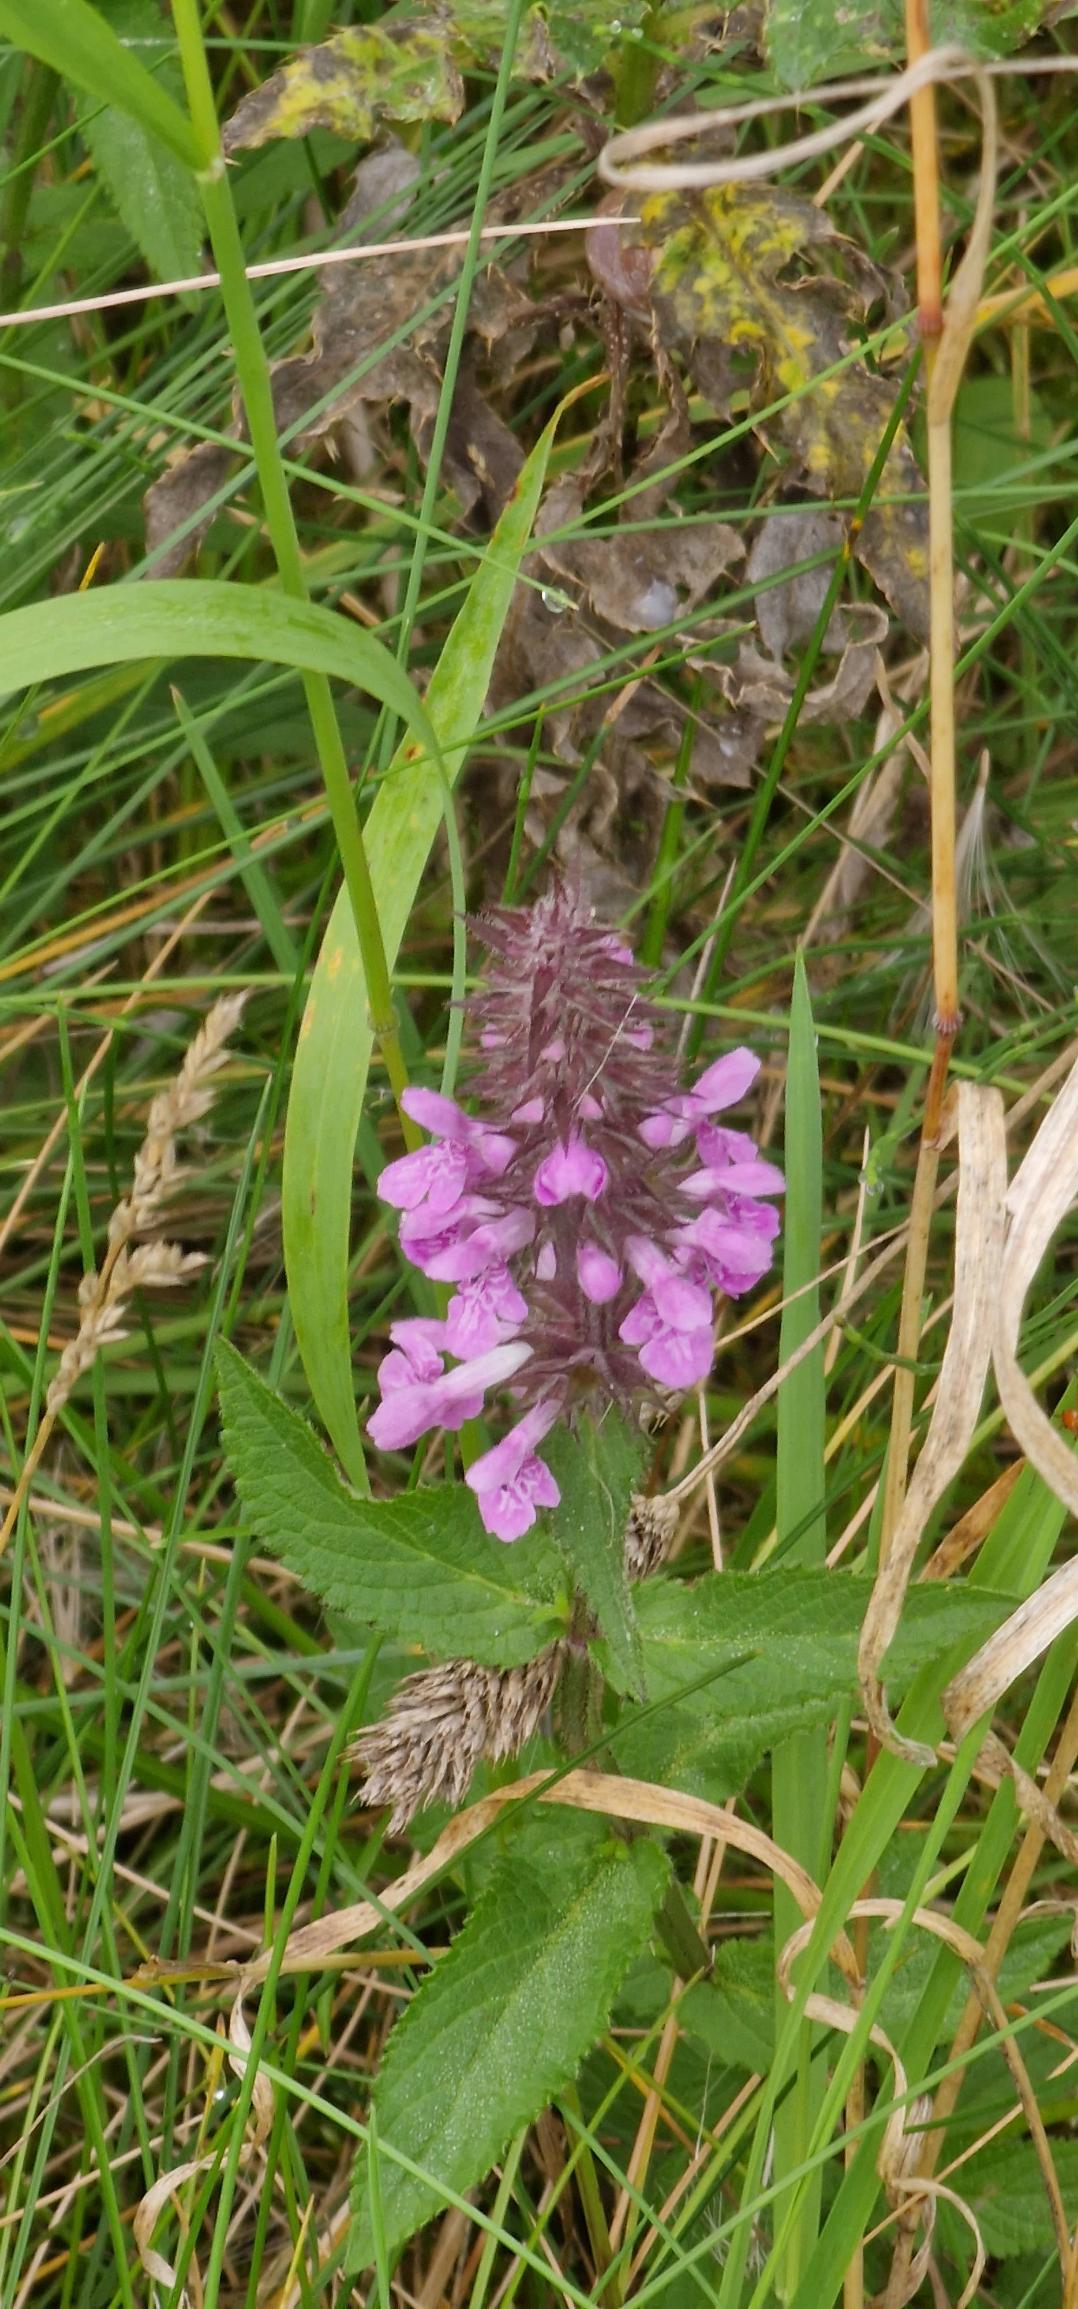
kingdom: Plantae
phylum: Tracheophyta
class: Magnoliopsida
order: Lamiales
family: Lamiaceae
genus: Stachys
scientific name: Stachys palustris
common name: Kær-galtetand
